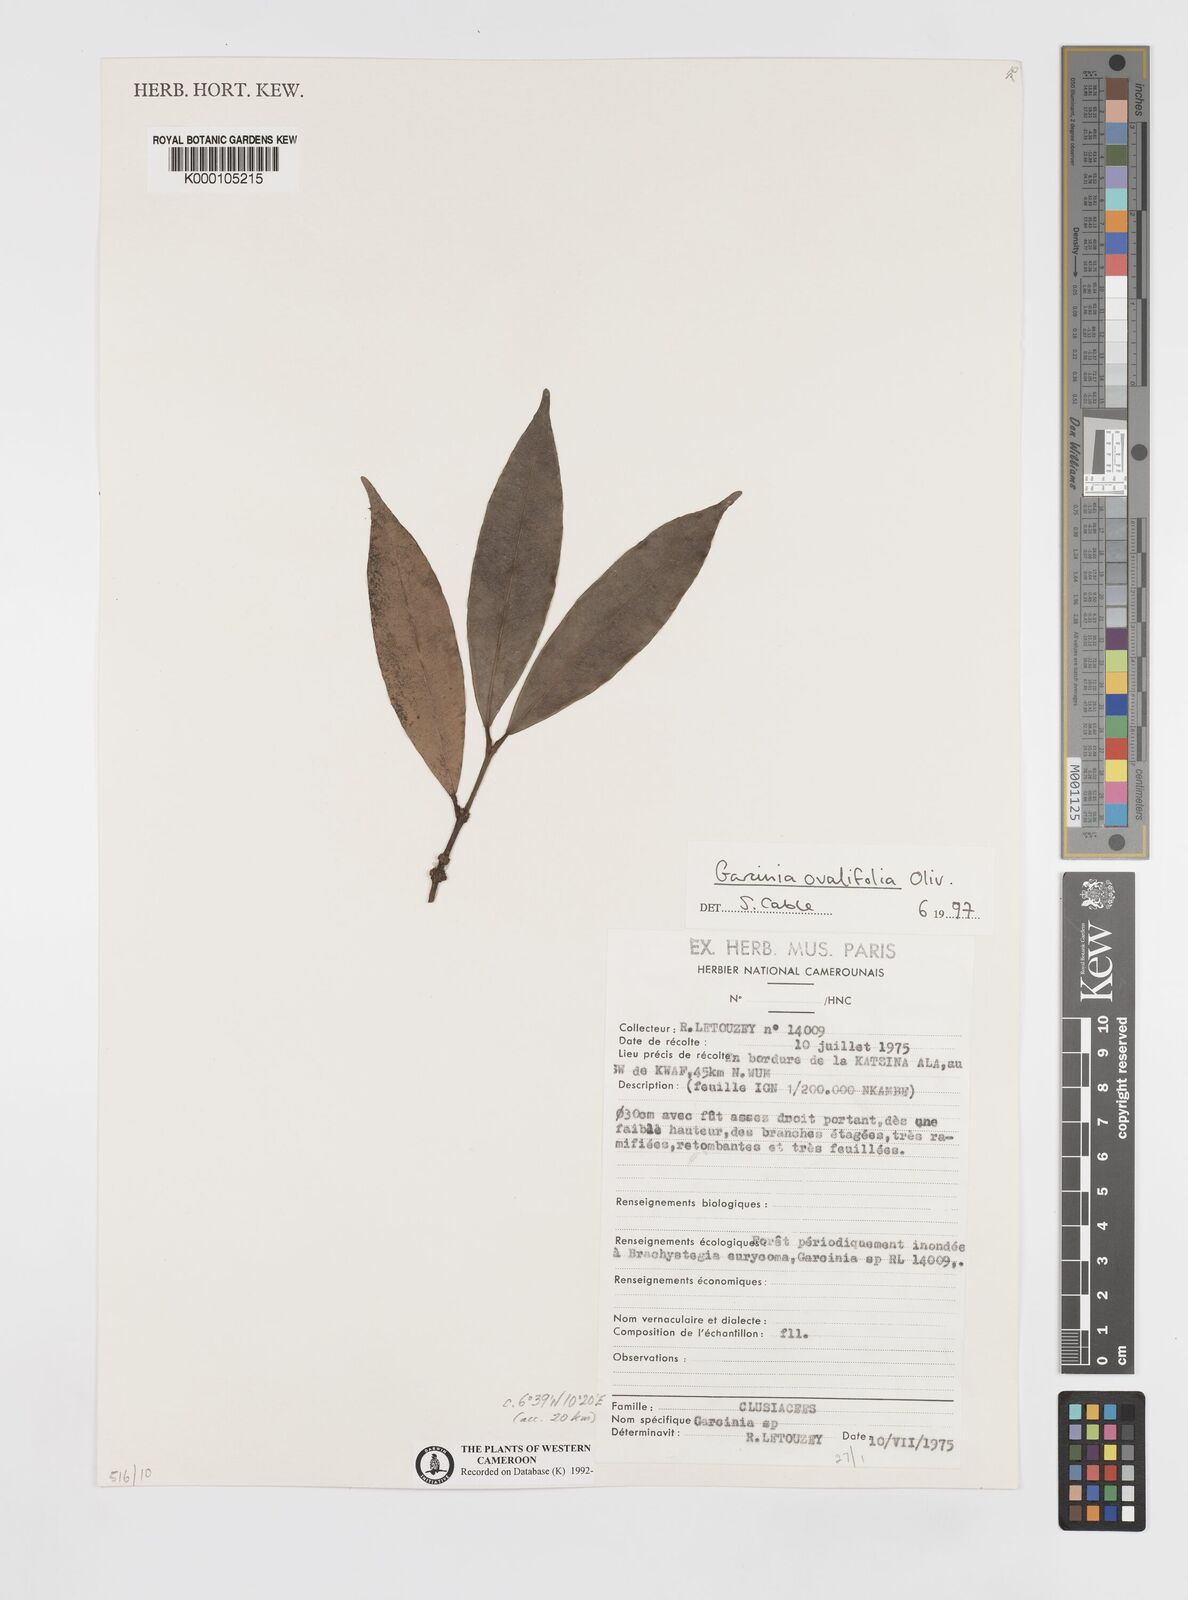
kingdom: Plantae
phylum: Tracheophyta
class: Magnoliopsida
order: Malpighiales
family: Clusiaceae
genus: Garcinia
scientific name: Garcinia ovalifolia
